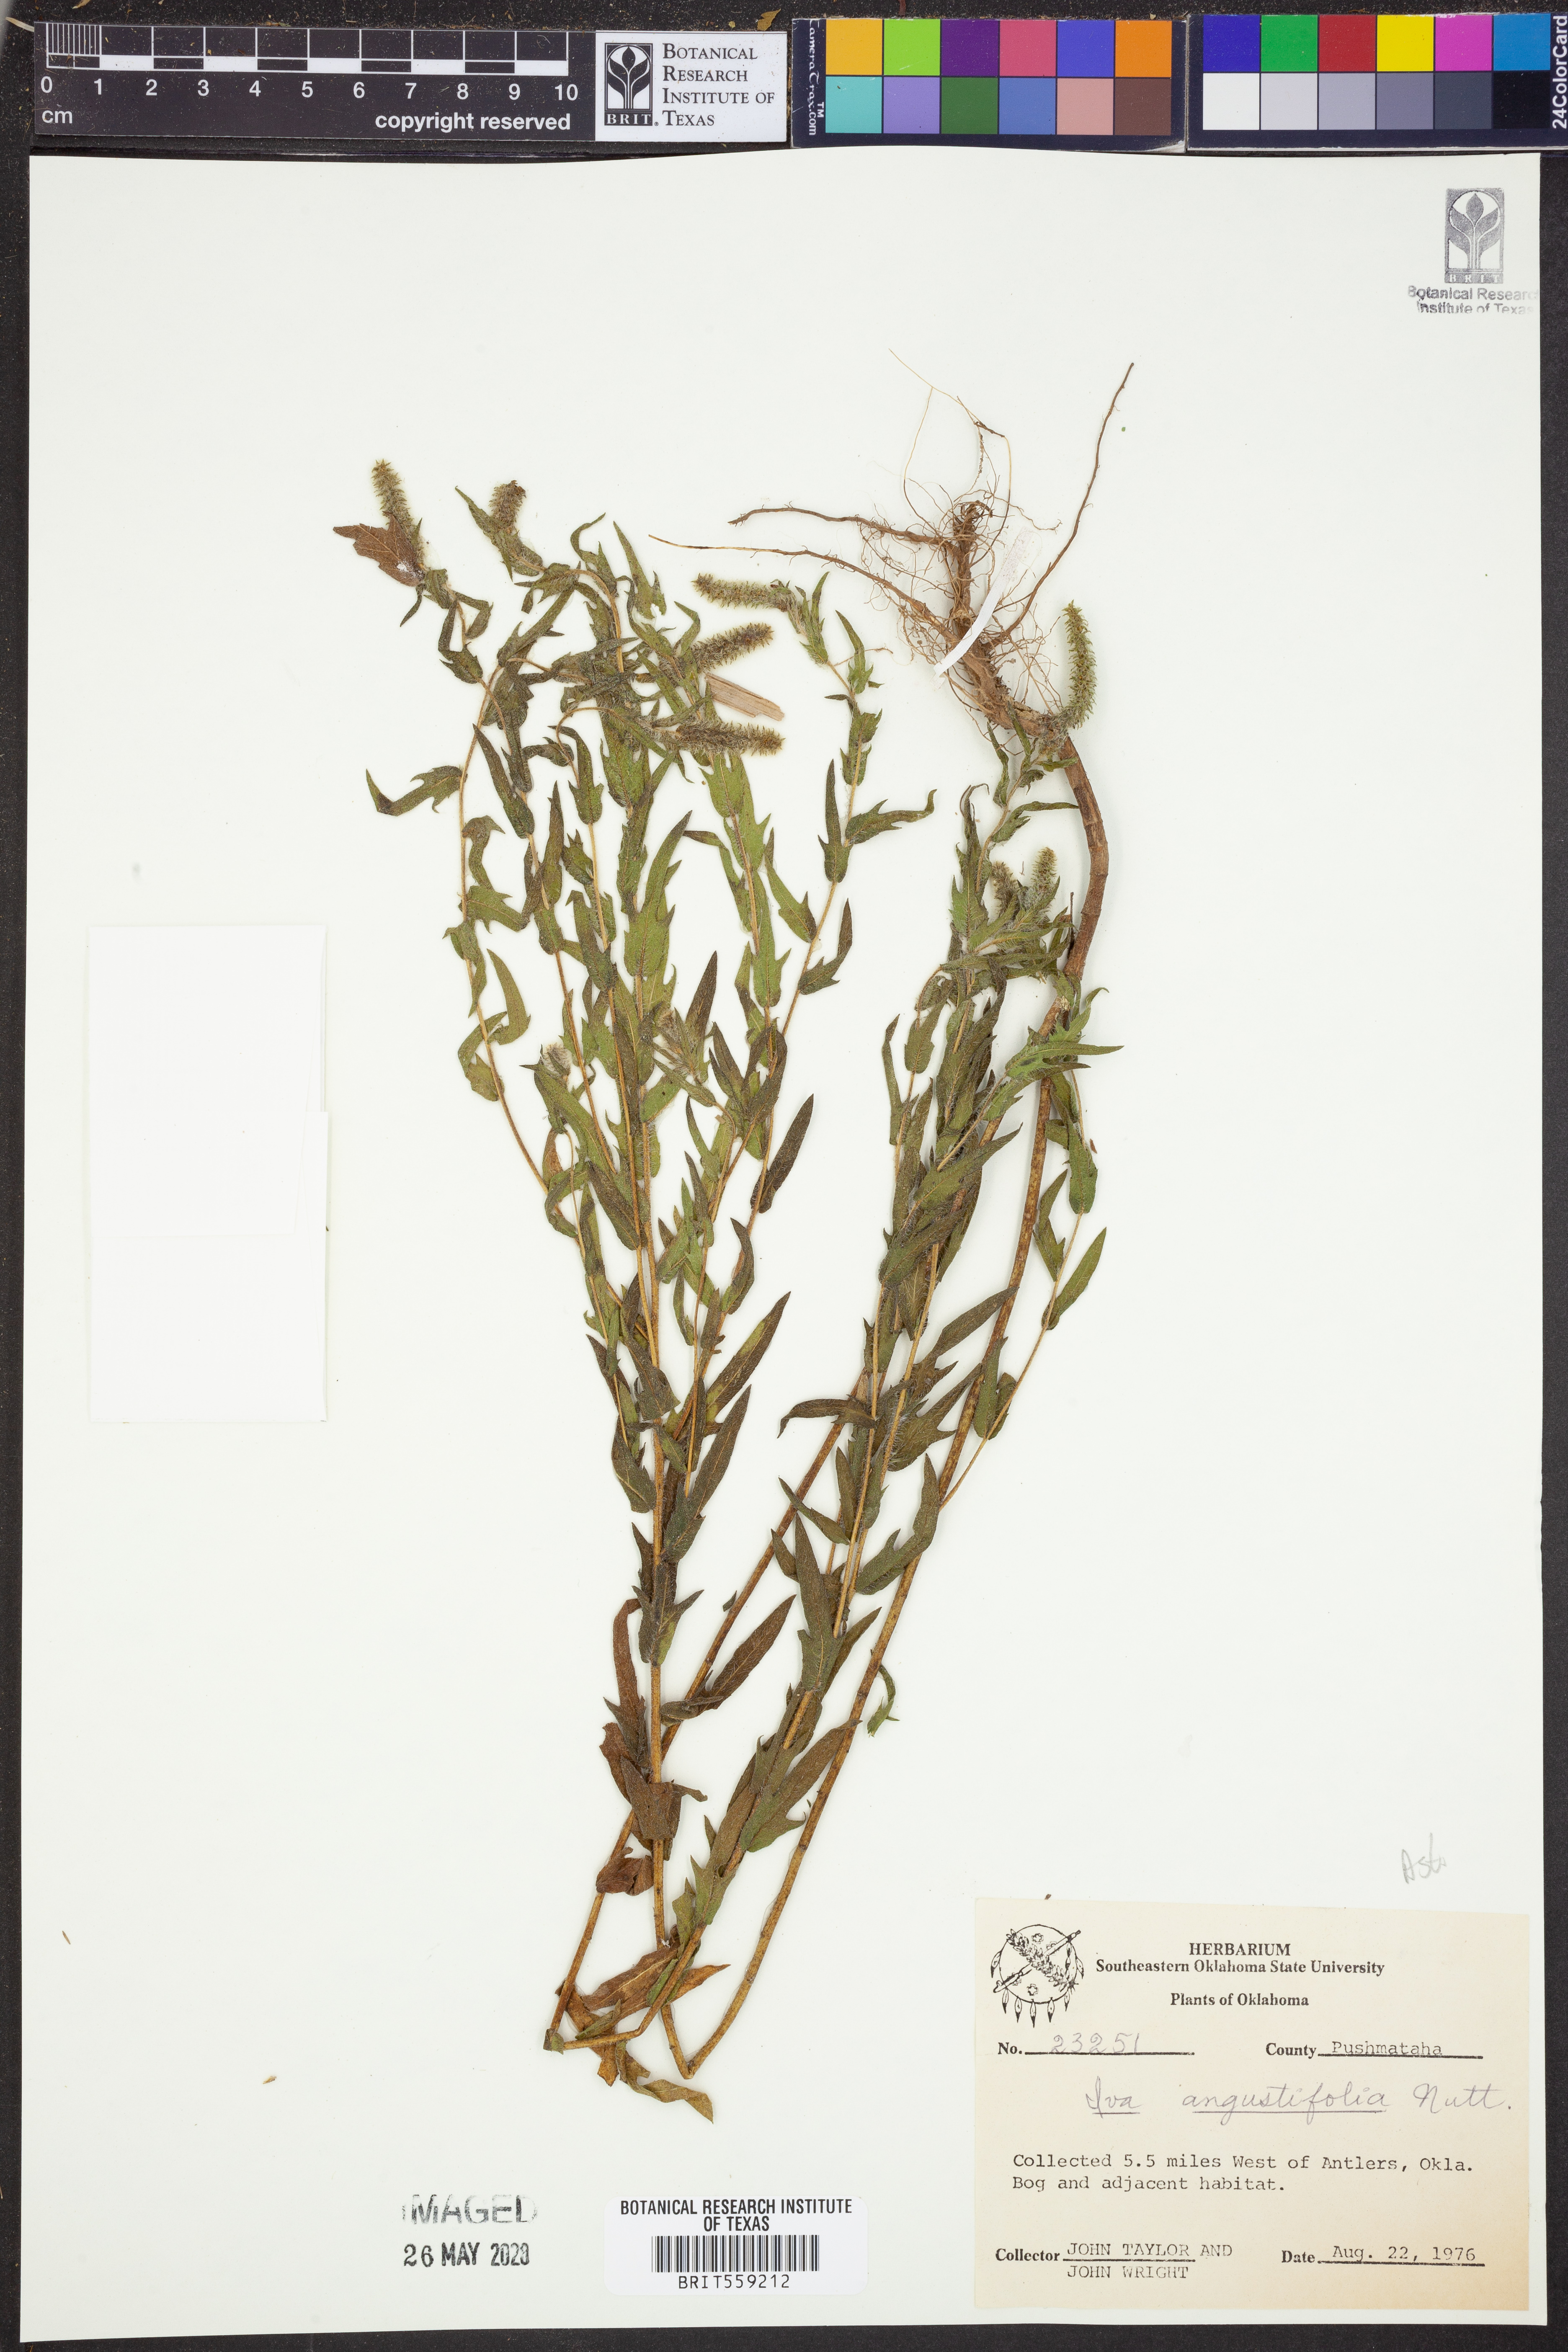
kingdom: Plantae
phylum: Tracheophyta
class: Magnoliopsida
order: Asterales
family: Asteraceae
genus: Iva
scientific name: Iva asperifolia
